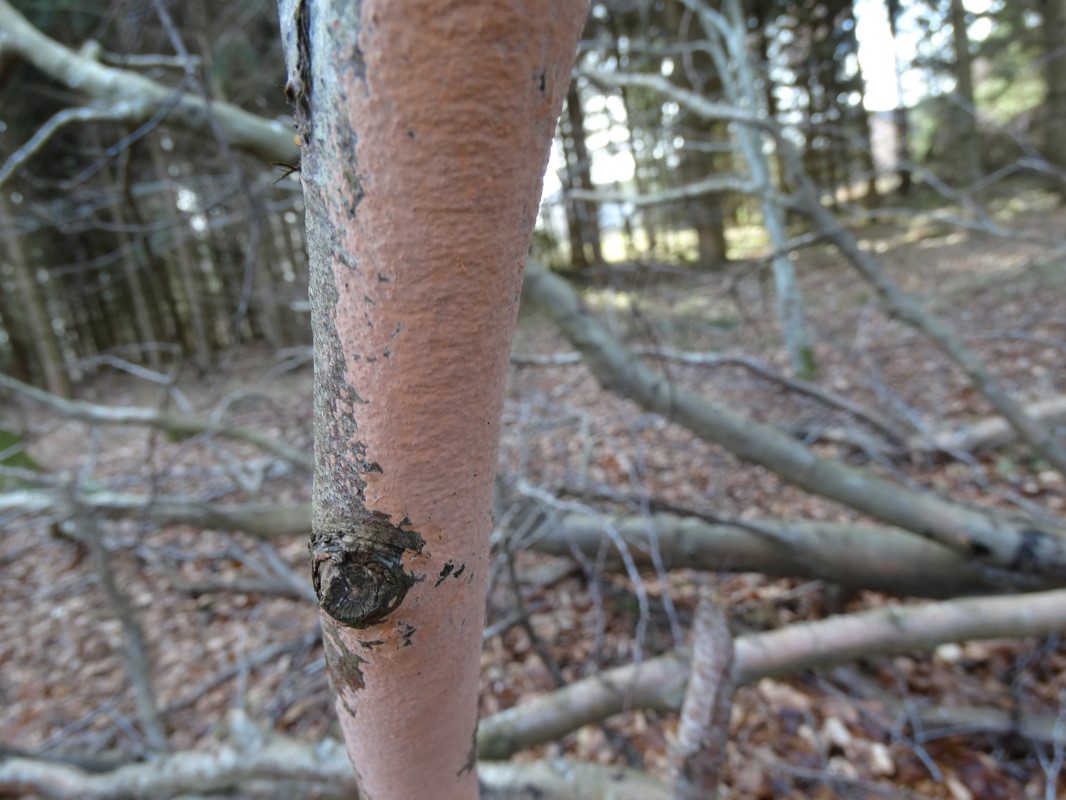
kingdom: Fungi
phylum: Basidiomycota
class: Agaricomycetes
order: Russulales
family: Peniophoraceae
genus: Peniophora
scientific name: Peniophora incarnata
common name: laksefarvet voksskind
